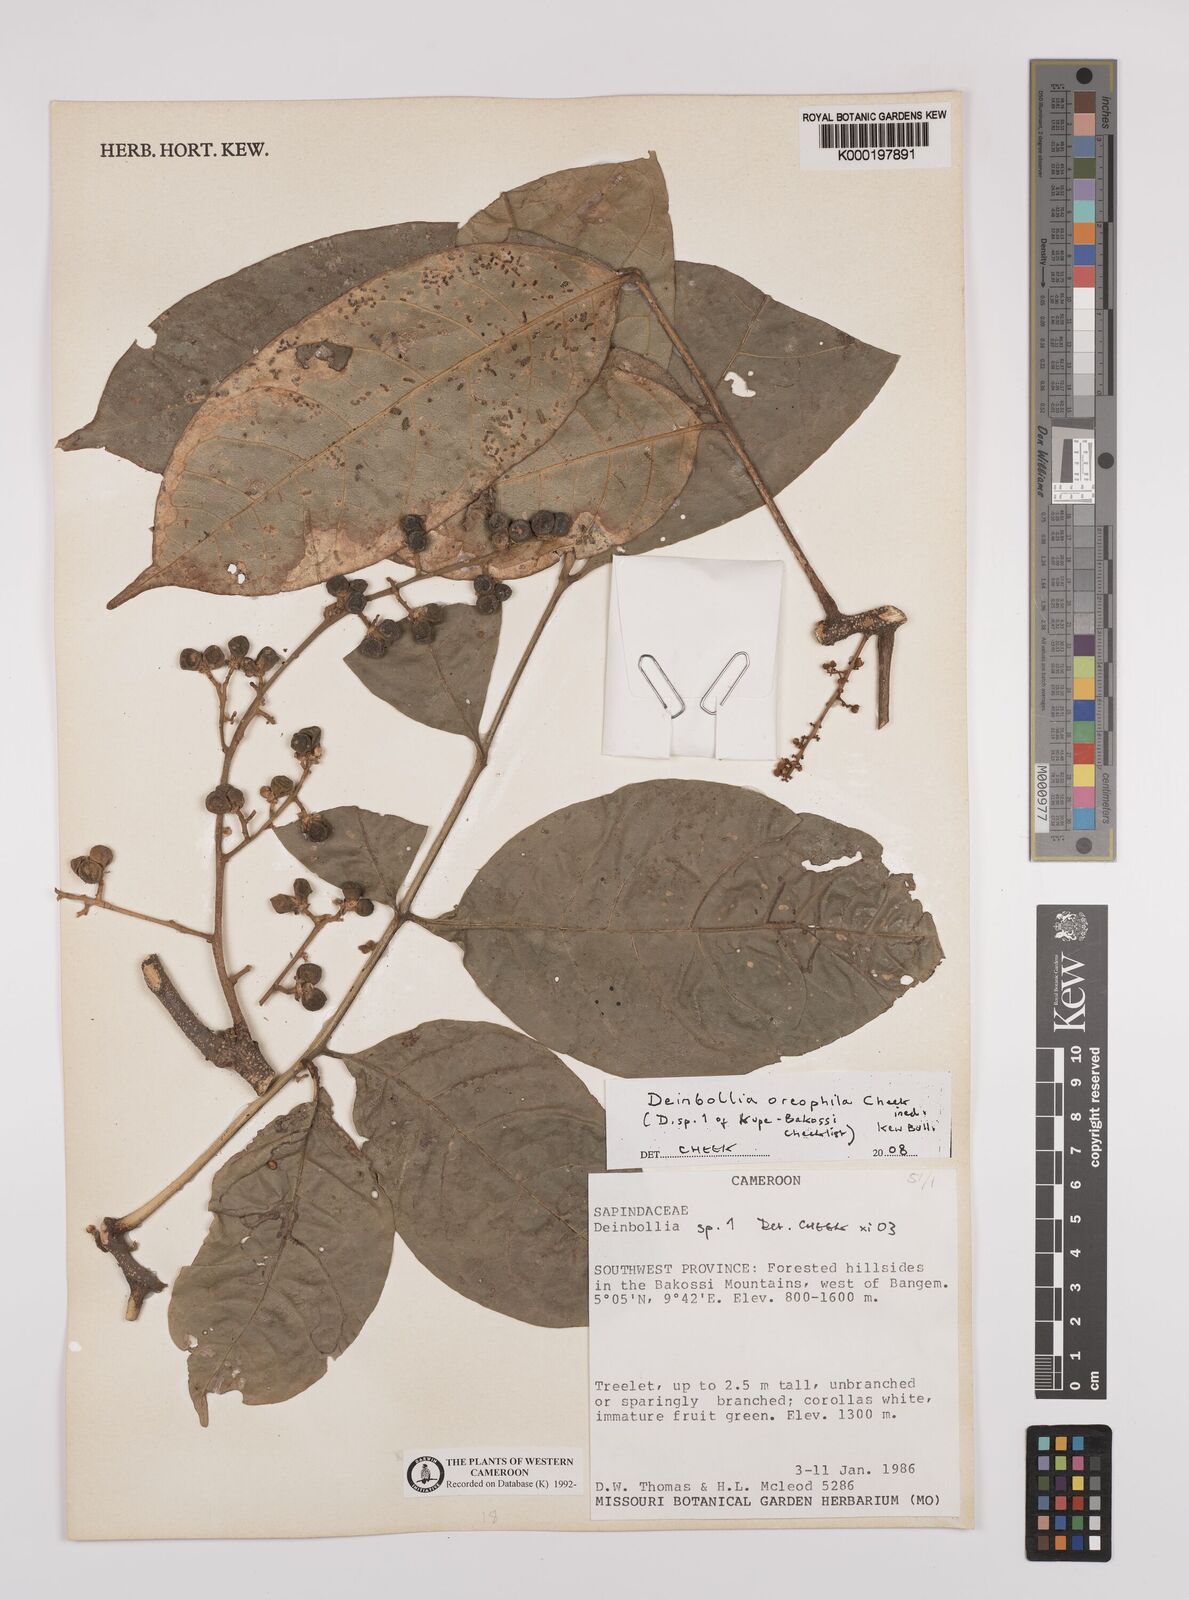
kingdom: Plantae
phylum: Tracheophyta
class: Magnoliopsida
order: Sapindales
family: Sapindaceae
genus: Deinbollia
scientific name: Deinbollia oreophila
